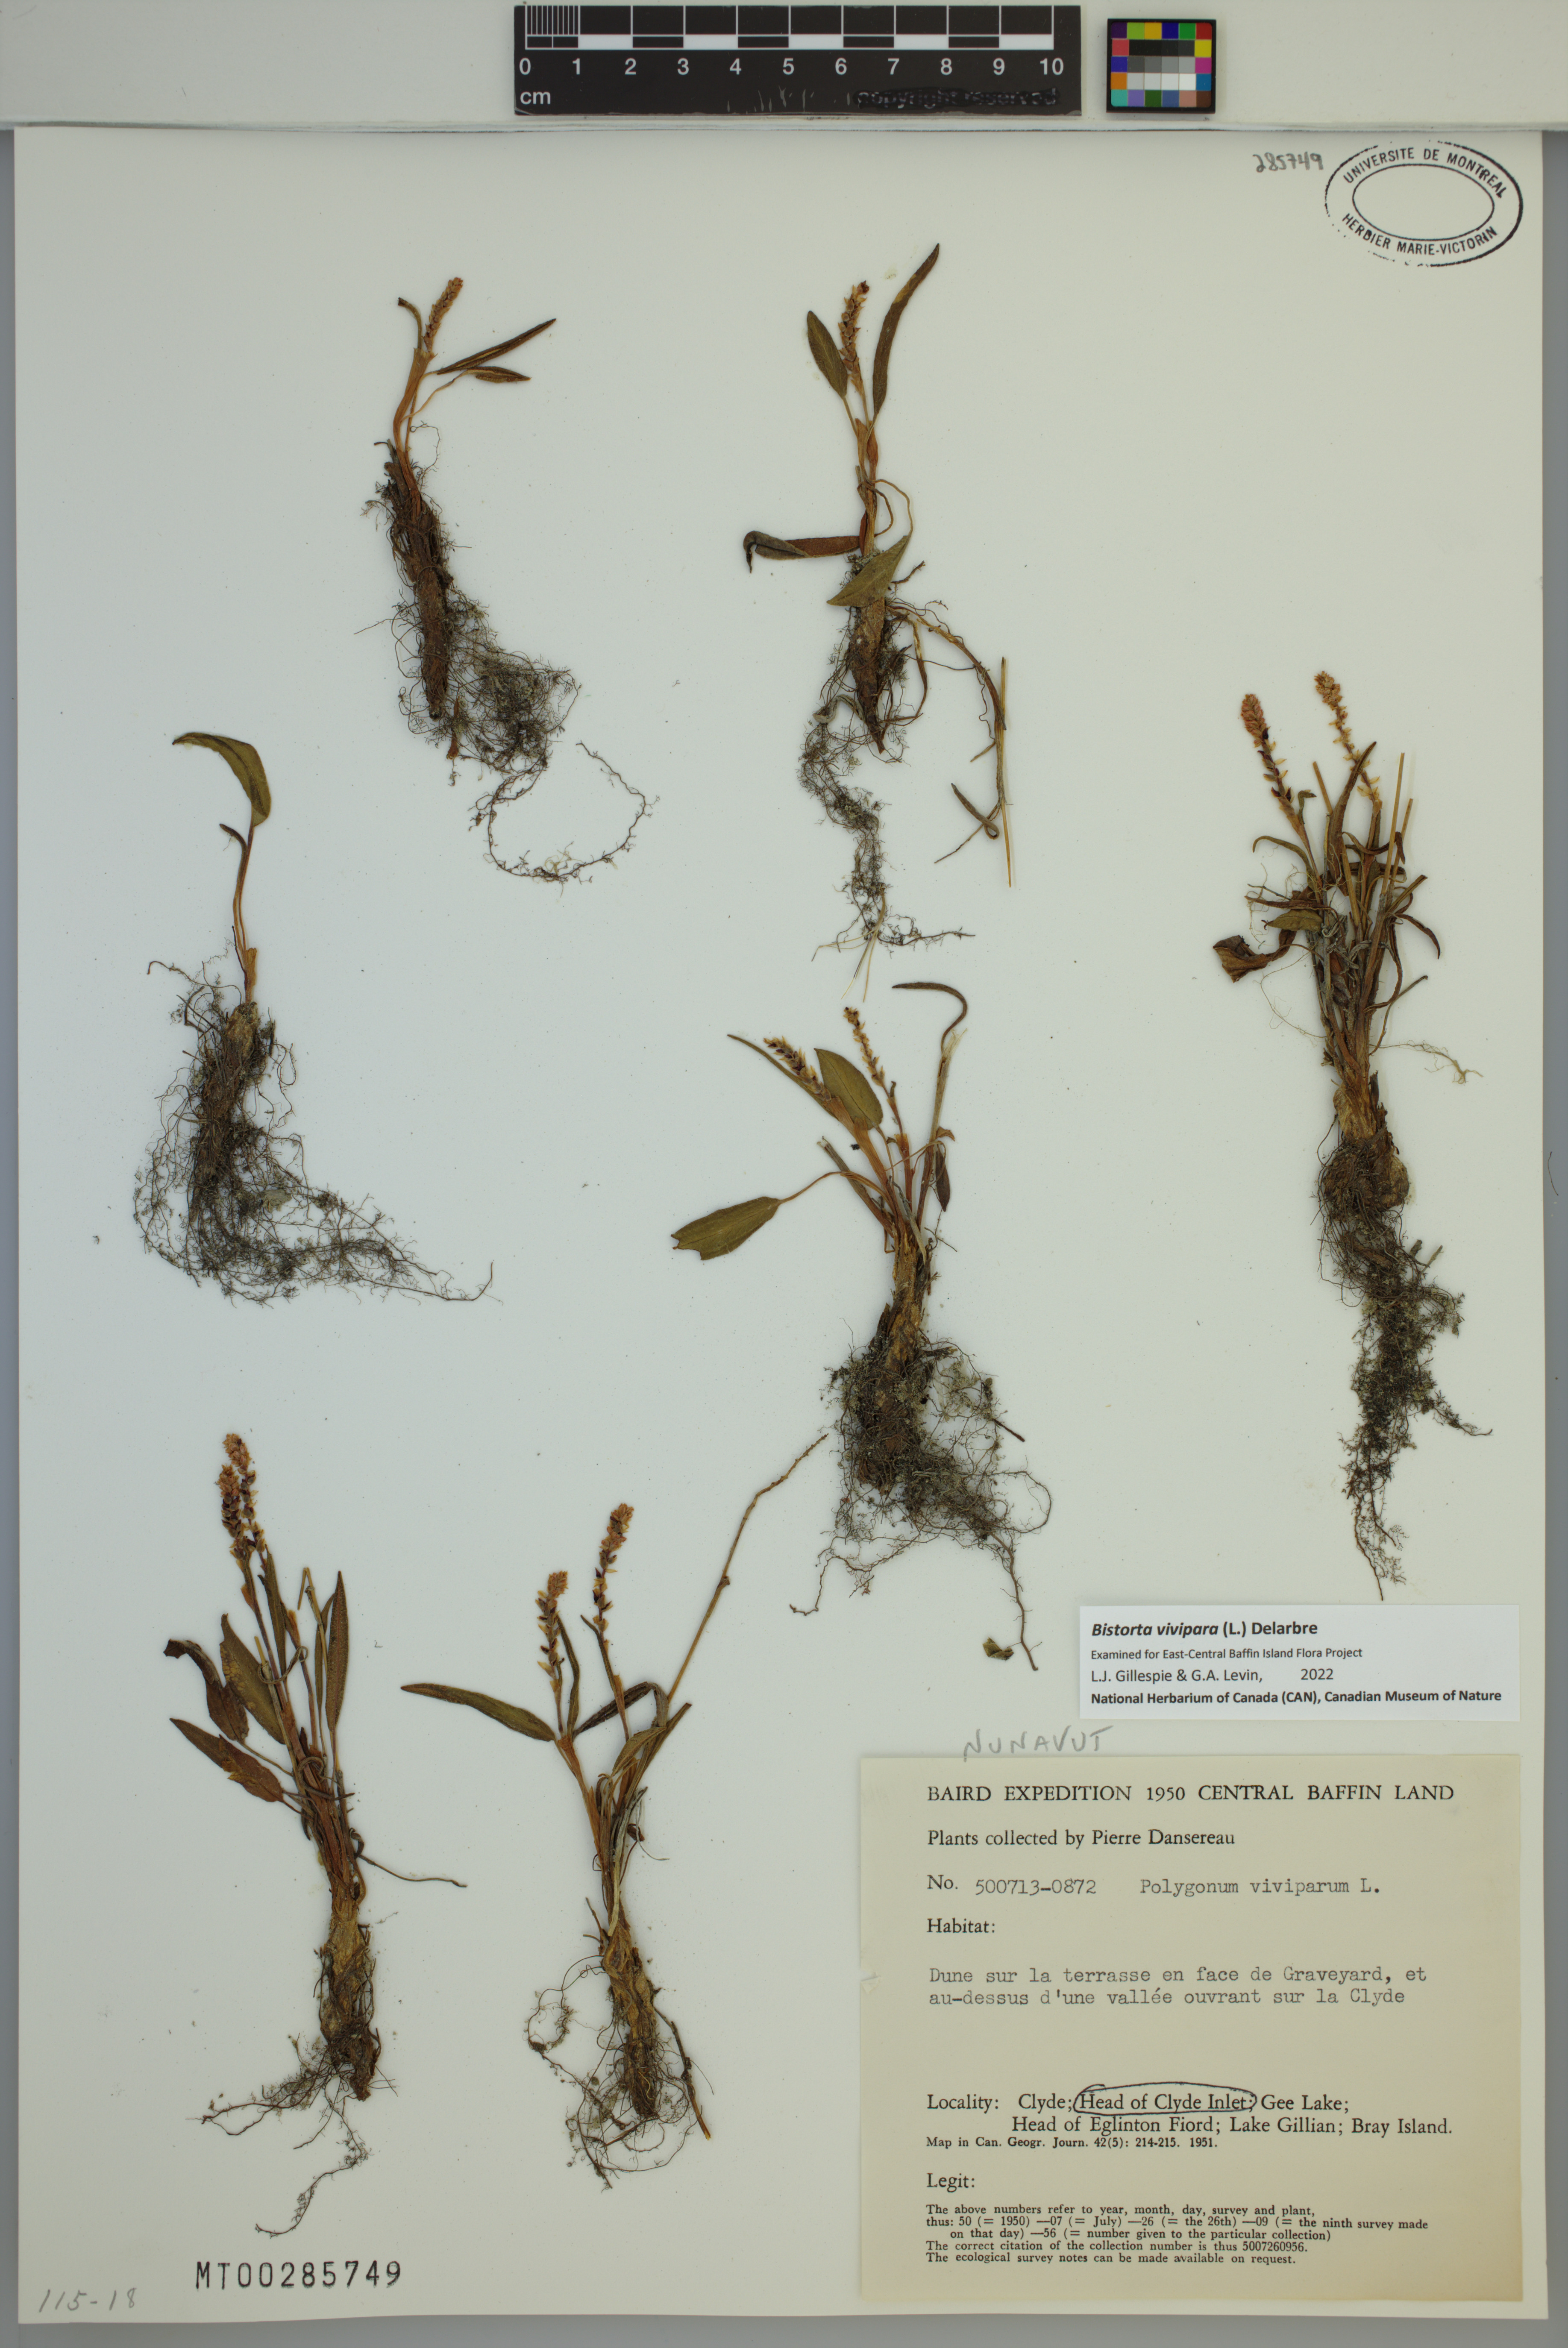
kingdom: Plantae
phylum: Tracheophyta
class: Magnoliopsida
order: Caryophyllales
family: Polygonaceae
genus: Bistorta
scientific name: Bistorta vivipara
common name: Alpine bistort
